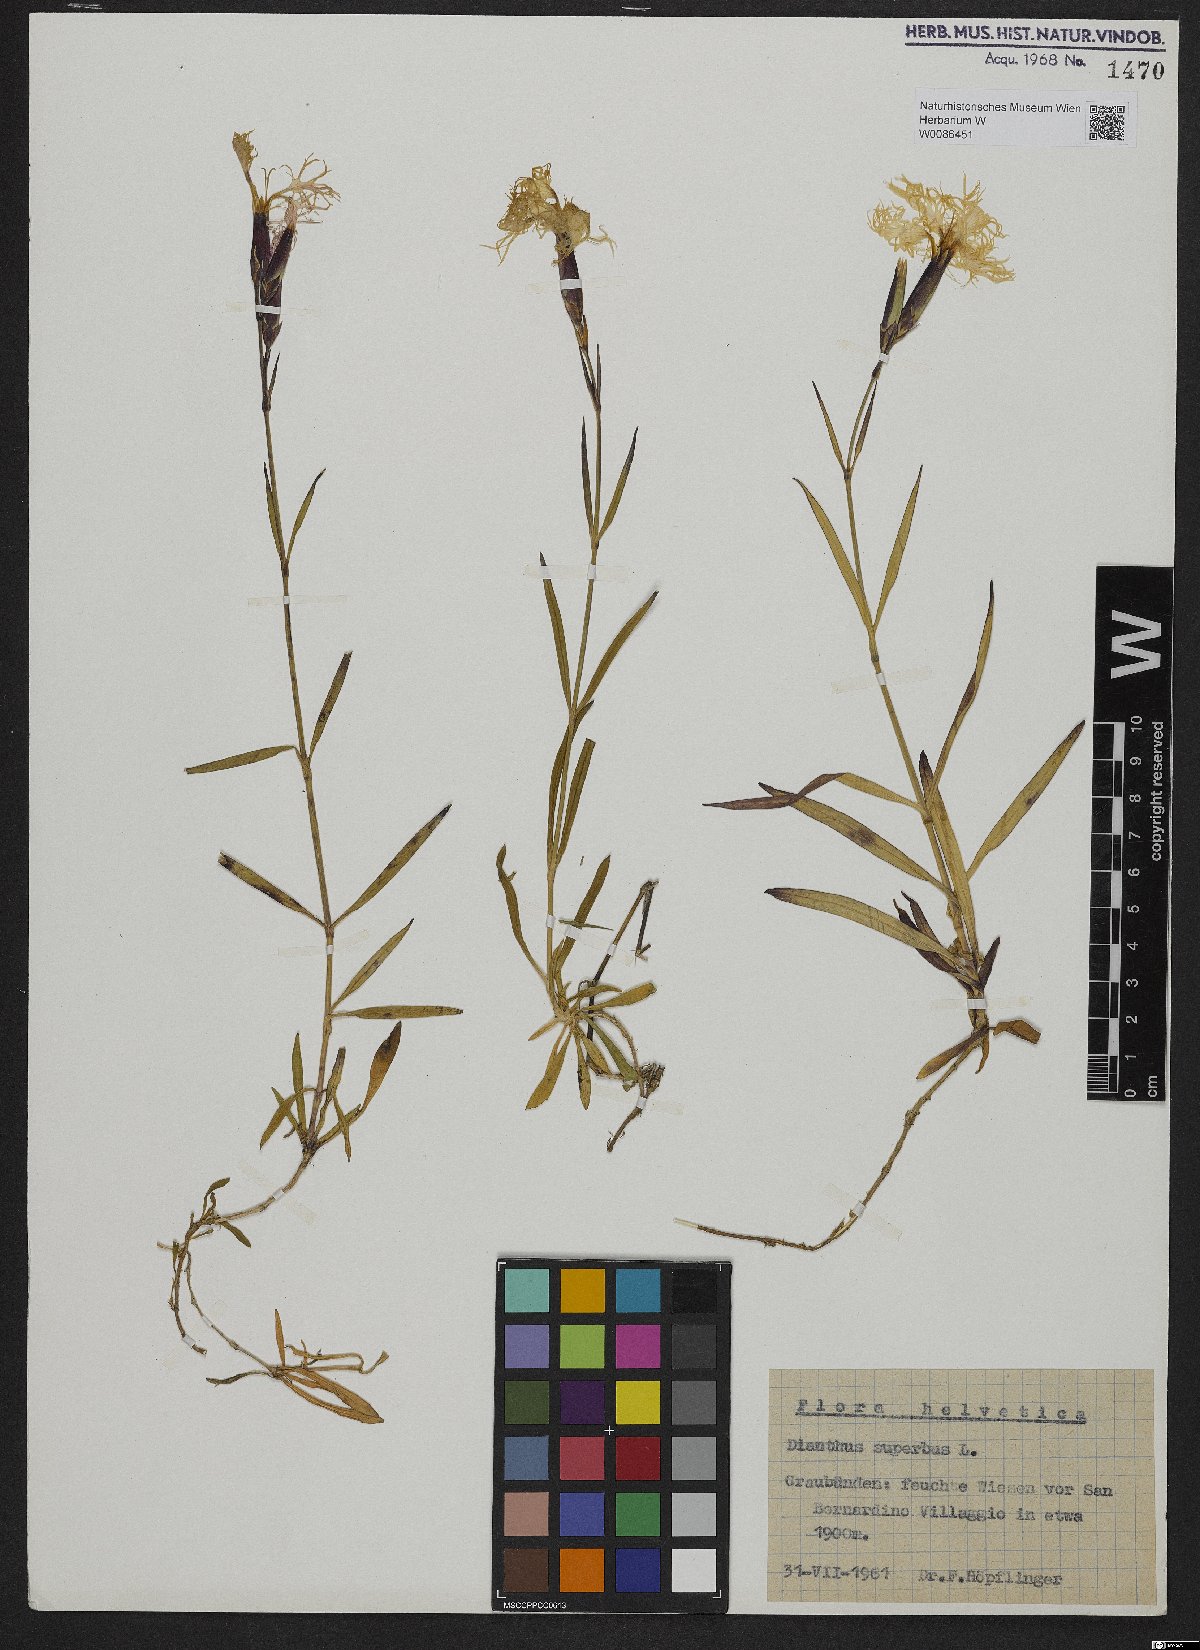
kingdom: Plantae
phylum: Tracheophyta
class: Magnoliopsida
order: Caryophyllales
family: Caryophyllaceae
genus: Dianthus
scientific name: Dianthus superbus
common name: Fringed pink
